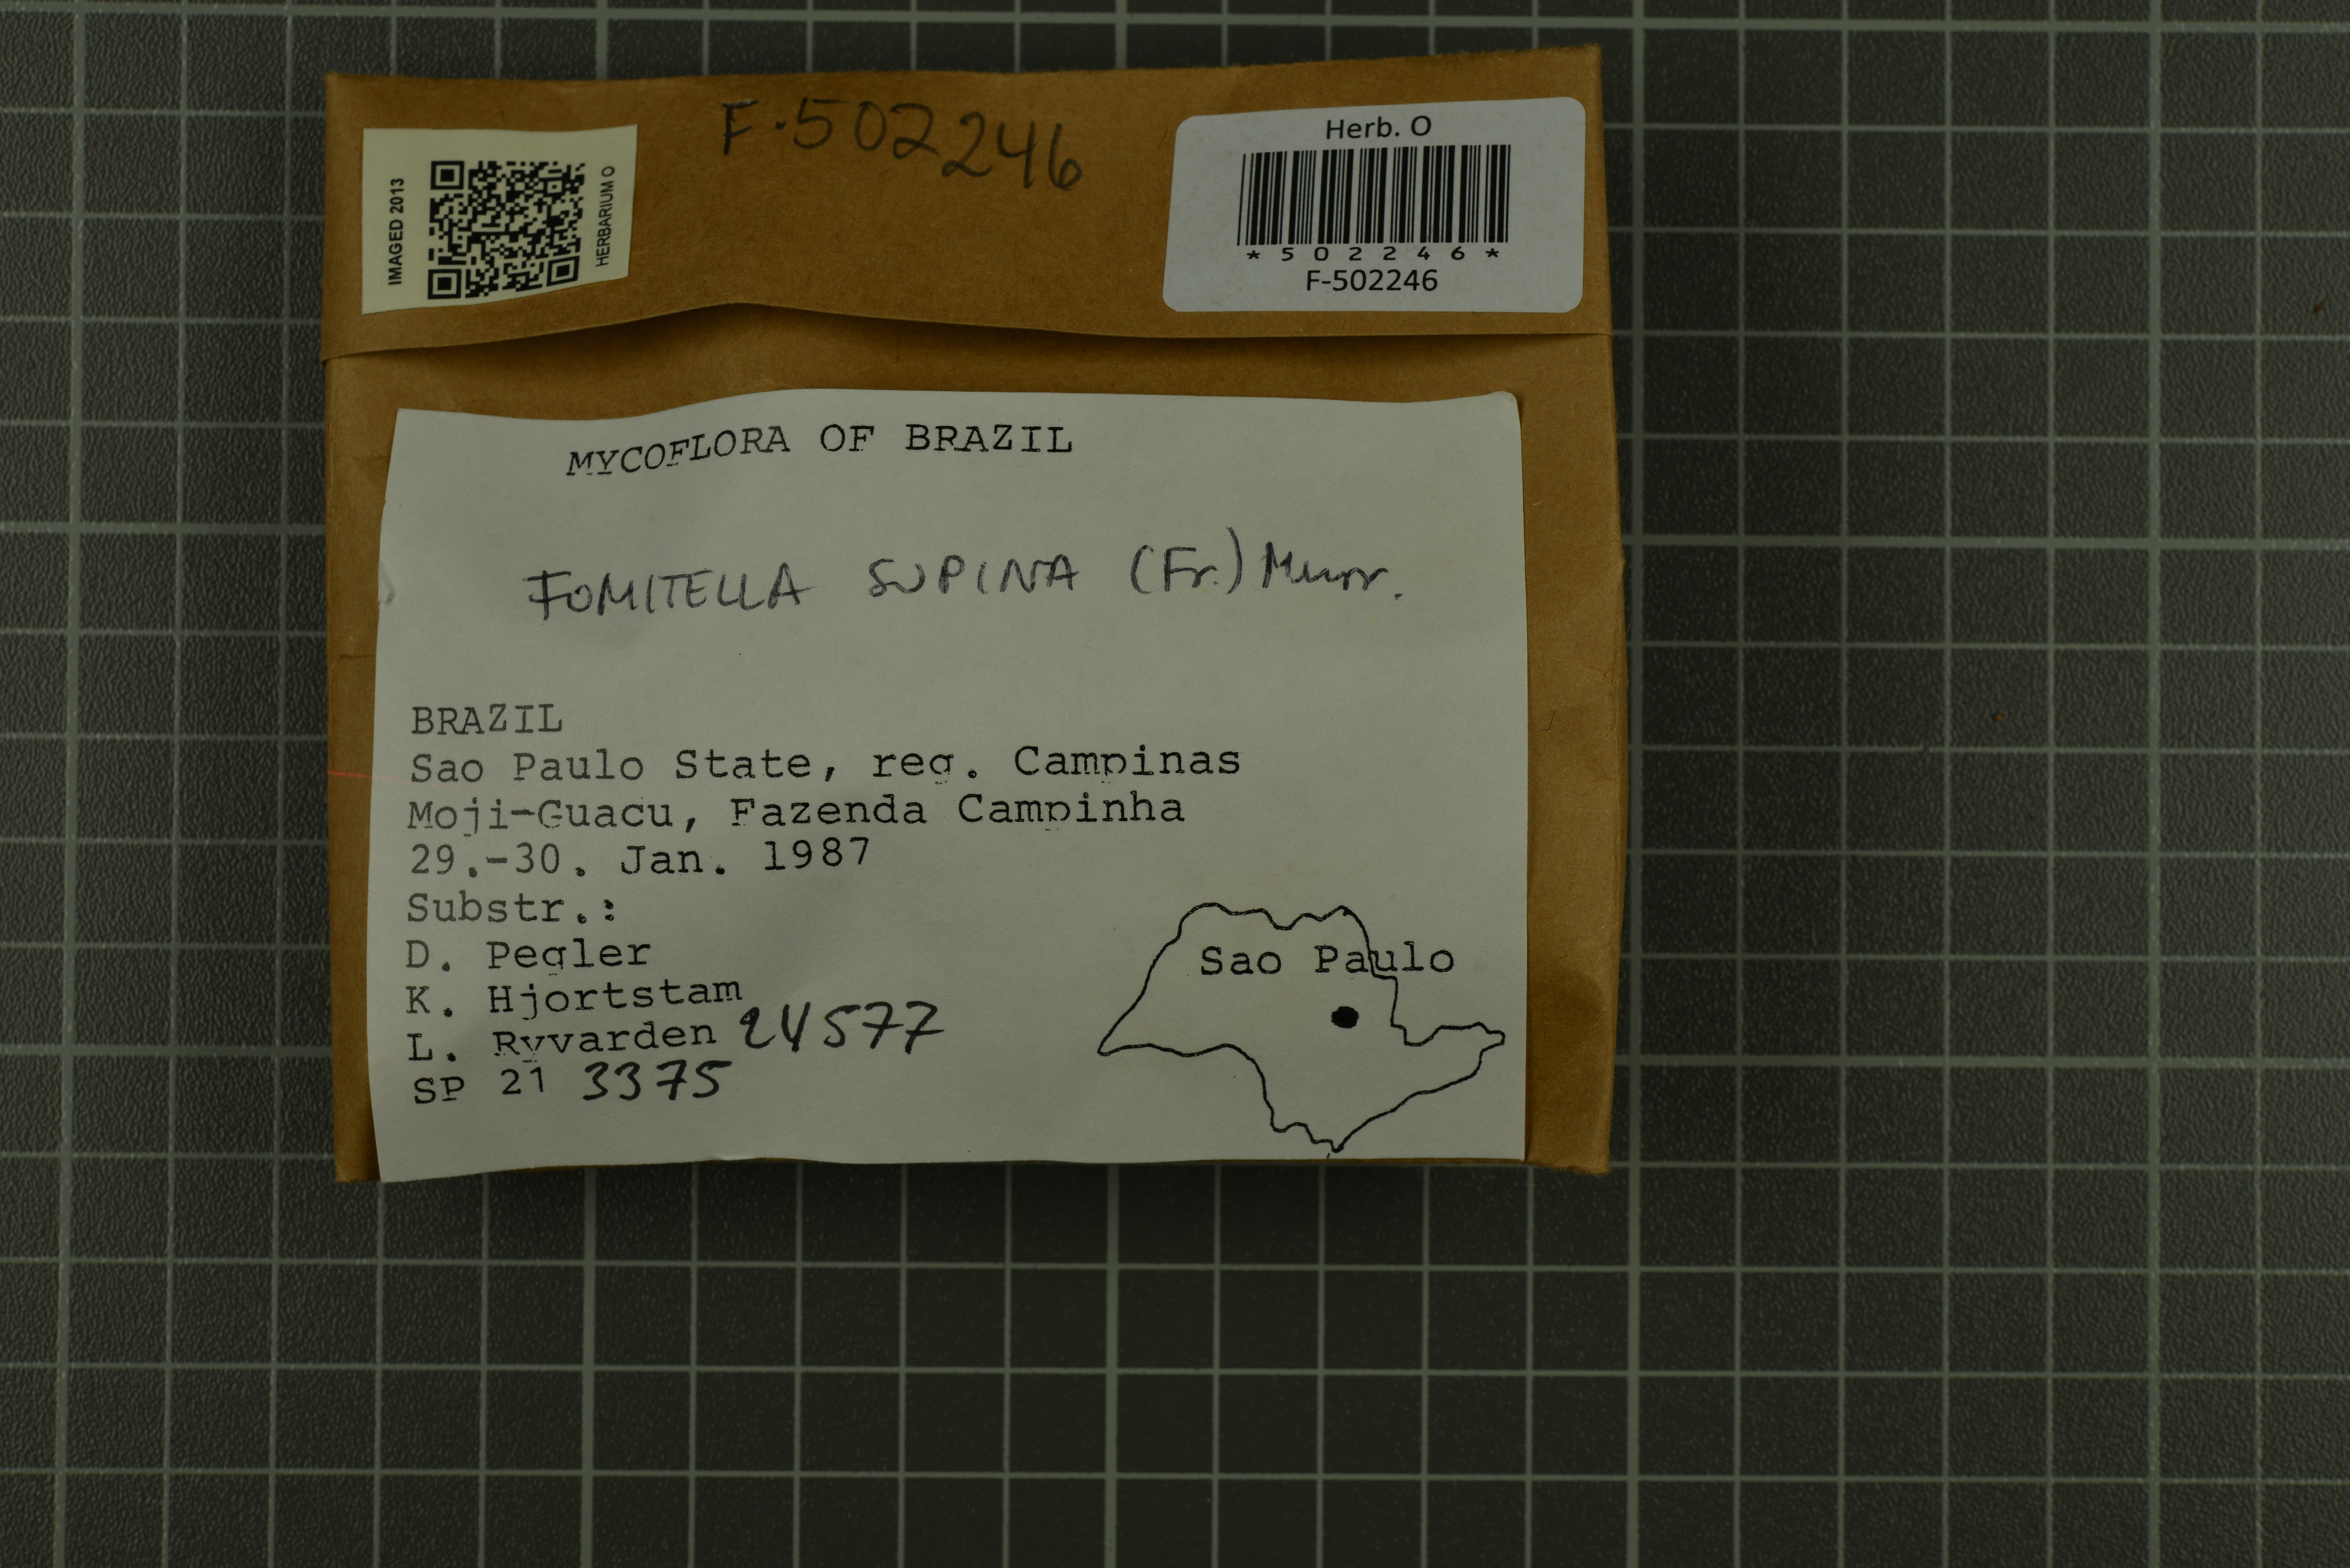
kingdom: Fungi
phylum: Basidiomycota
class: Agaricomycetes
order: Polyporales
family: Polyporaceae
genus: Fomitella
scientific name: Fomitella supina
